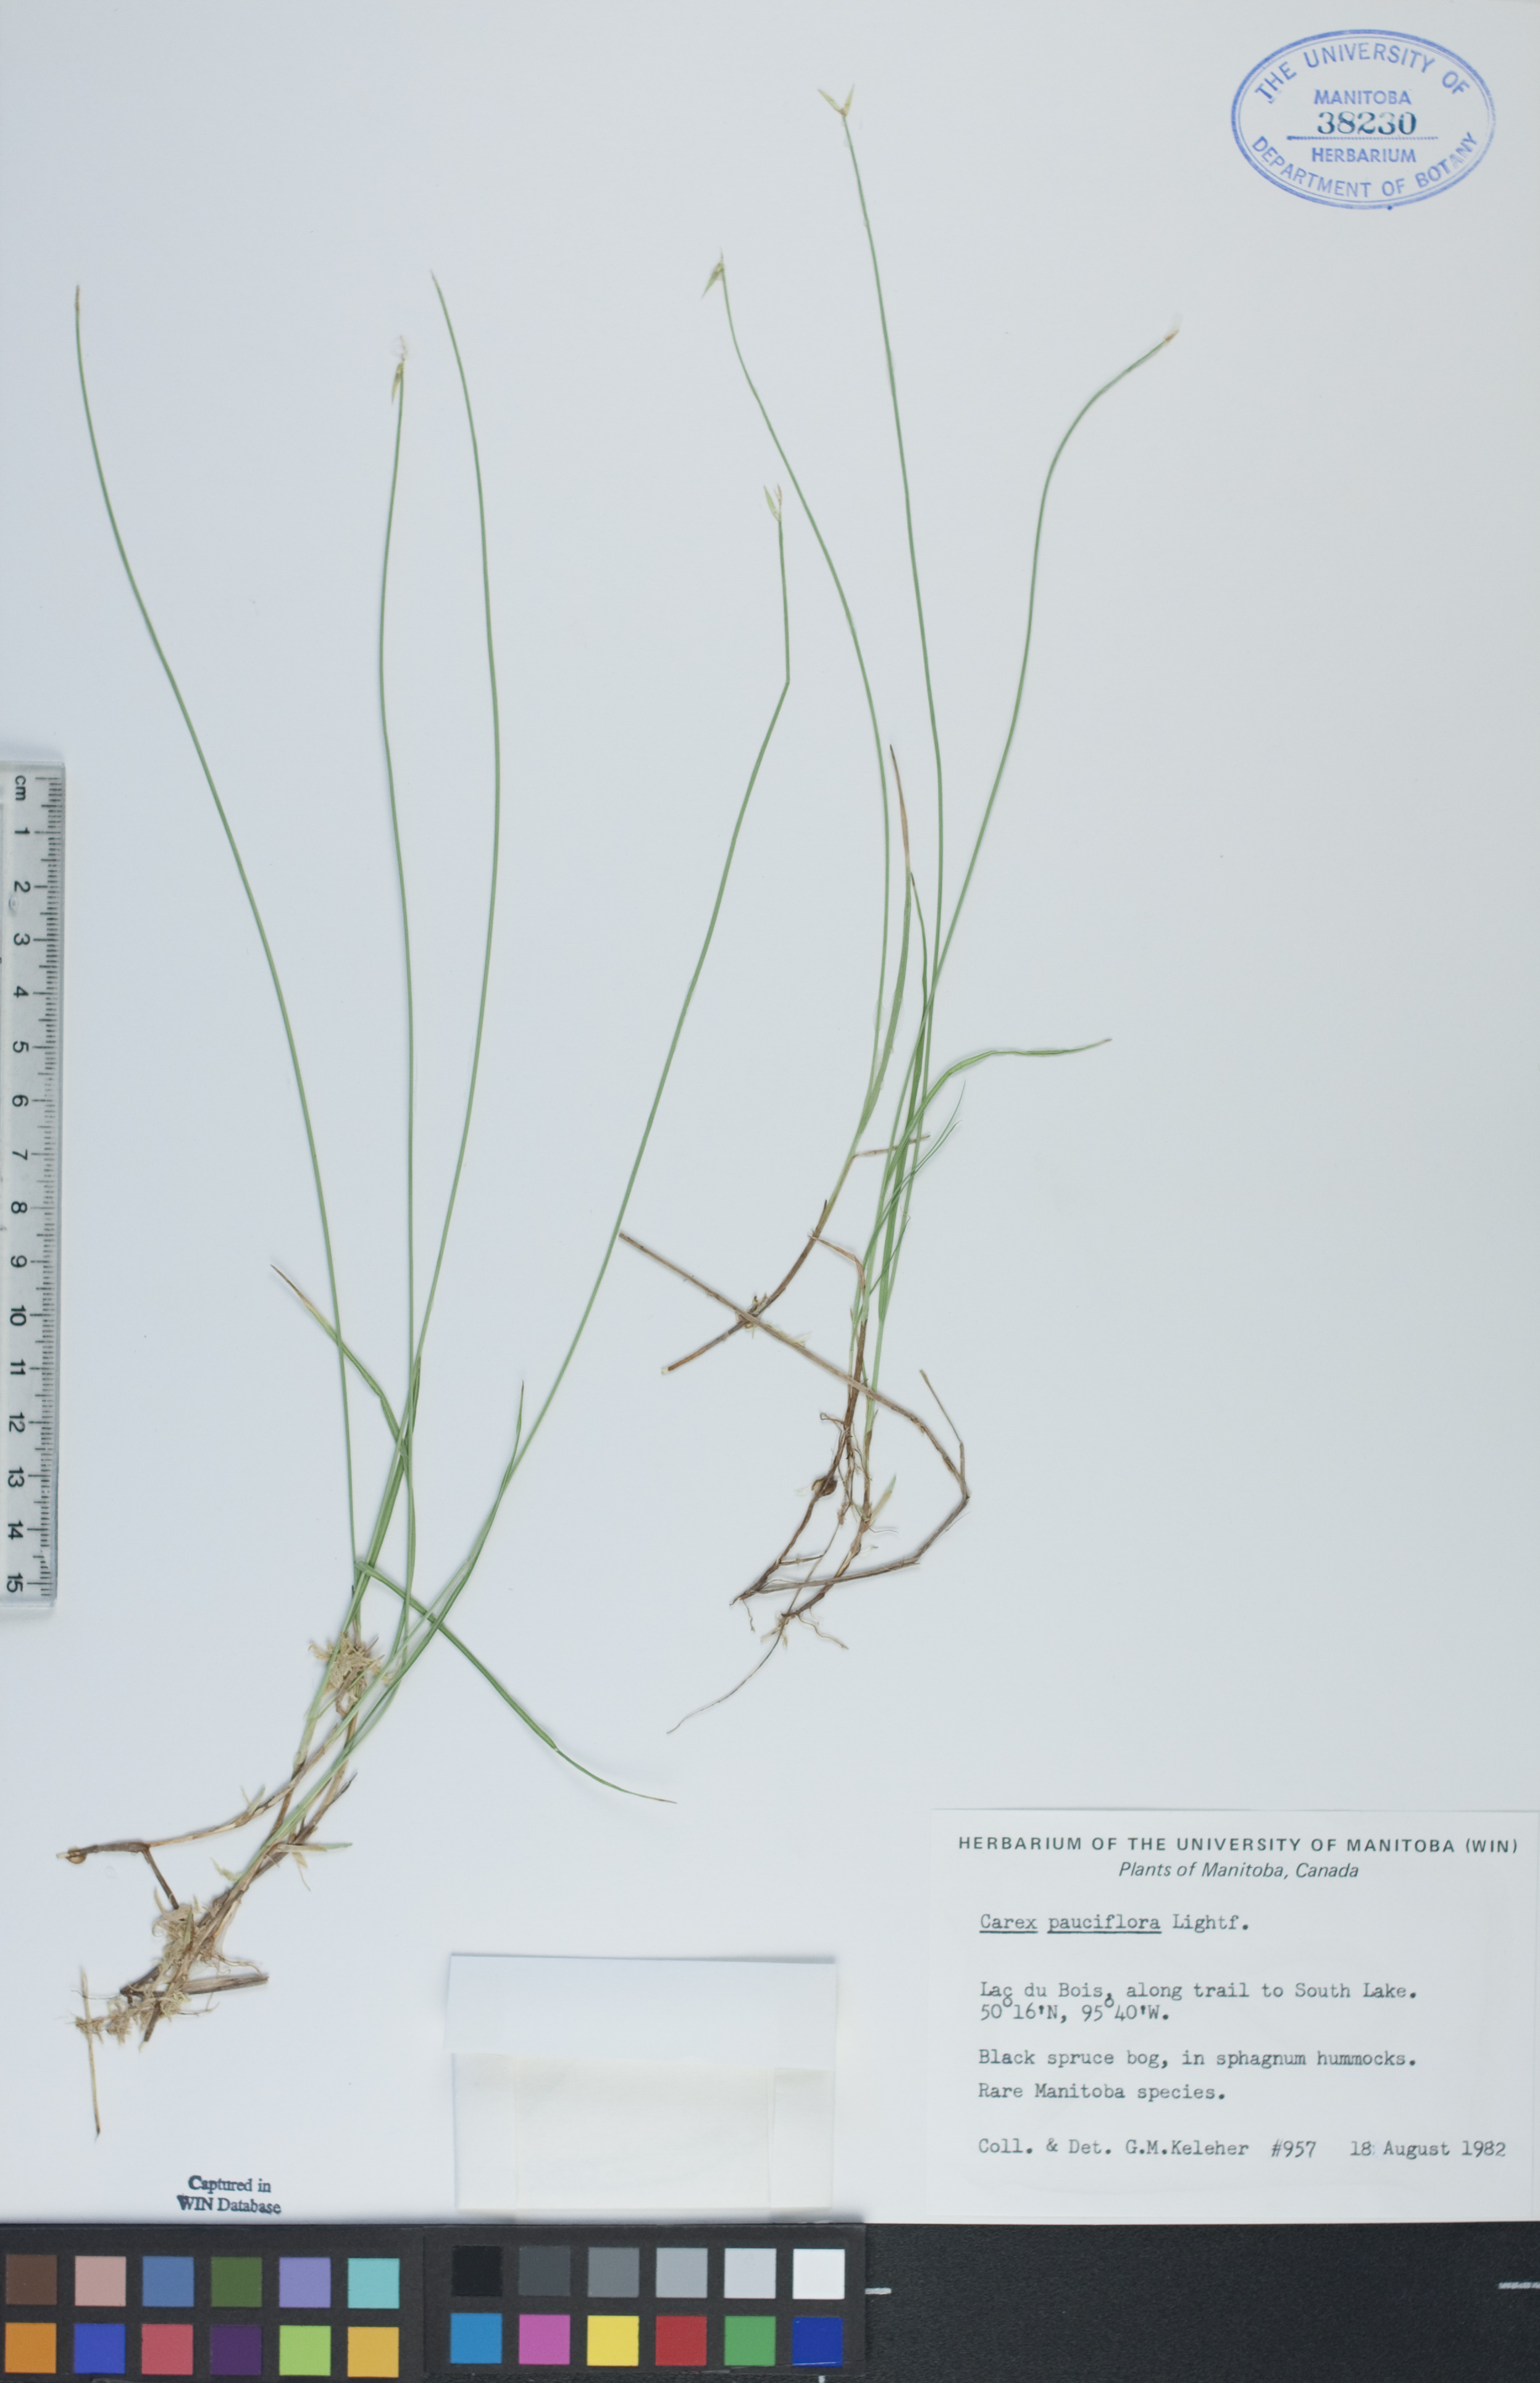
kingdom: Plantae
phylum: Tracheophyta
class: Liliopsida
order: Poales
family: Cyperaceae
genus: Carex
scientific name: Carex pauciflora
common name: Few-flowered sedge
